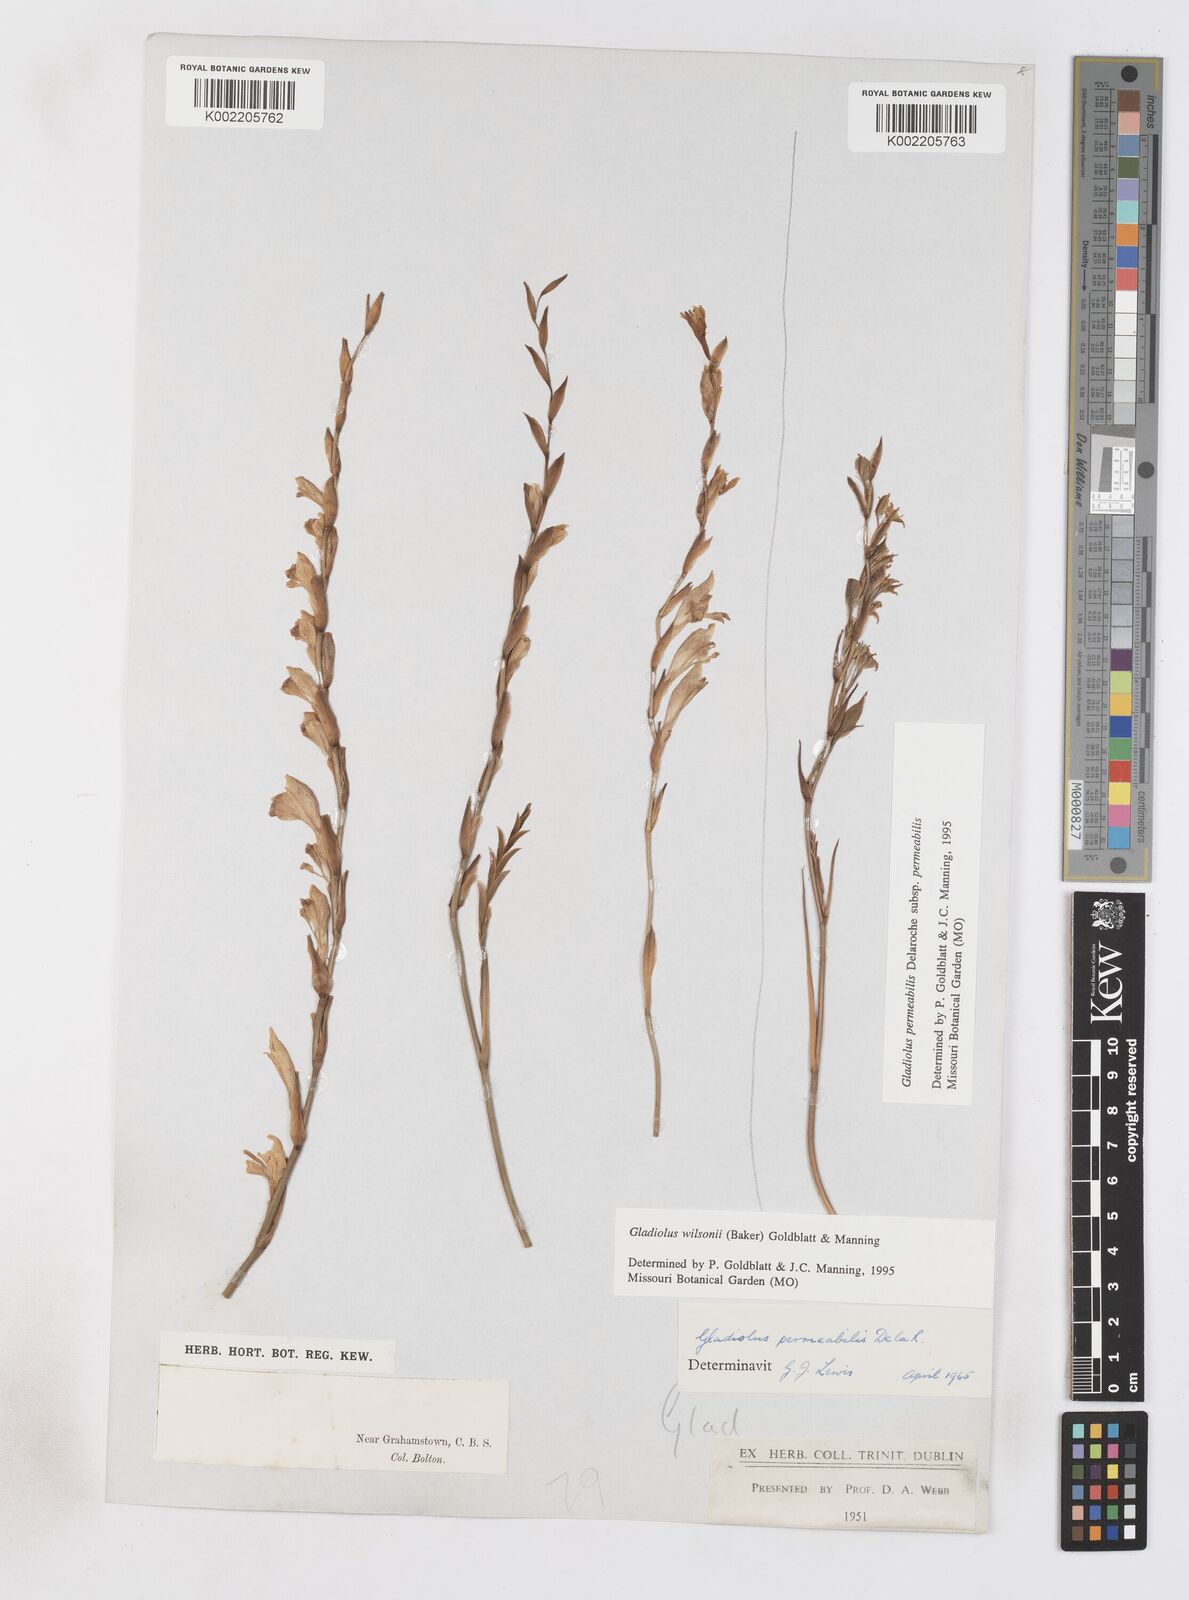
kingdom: Plantae
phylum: Tracheophyta
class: Liliopsida
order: Asparagales
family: Iridaceae
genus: Gladiolus
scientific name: Gladiolus wilsonii
